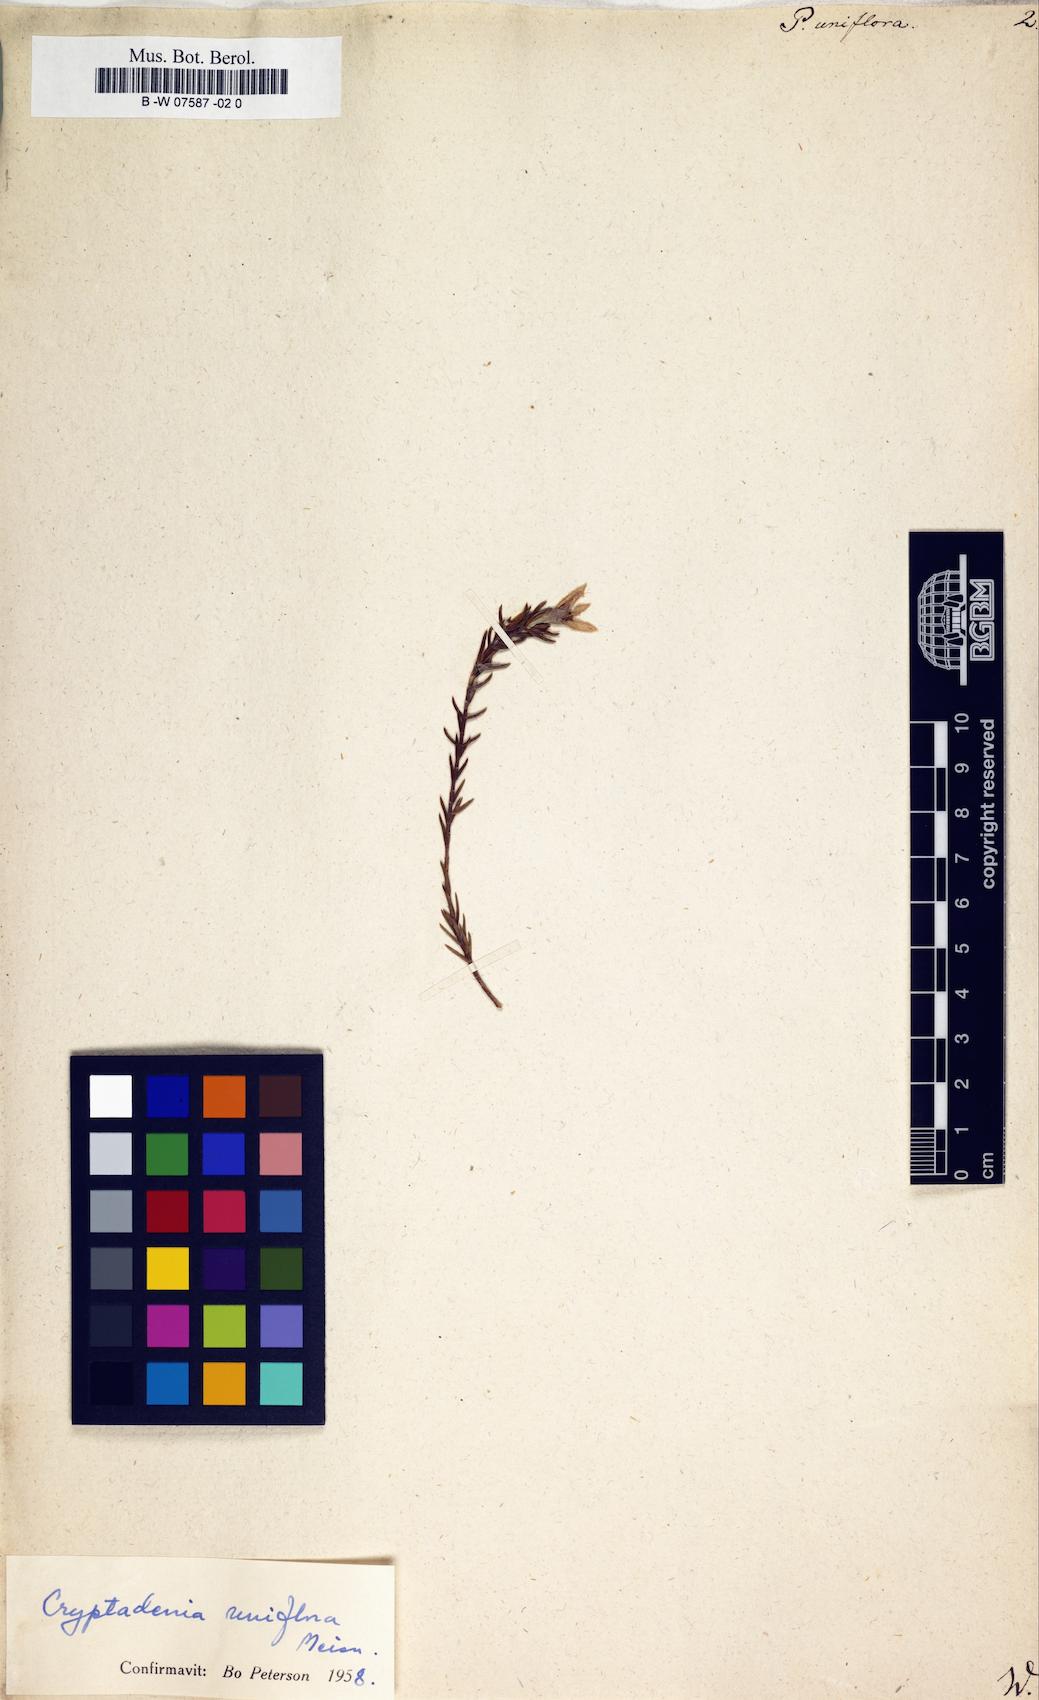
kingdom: Plantae
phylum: Tracheophyta
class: Magnoliopsida
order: Malvales
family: Thymelaeaceae
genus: Passerina
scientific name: Passerina uniflora
